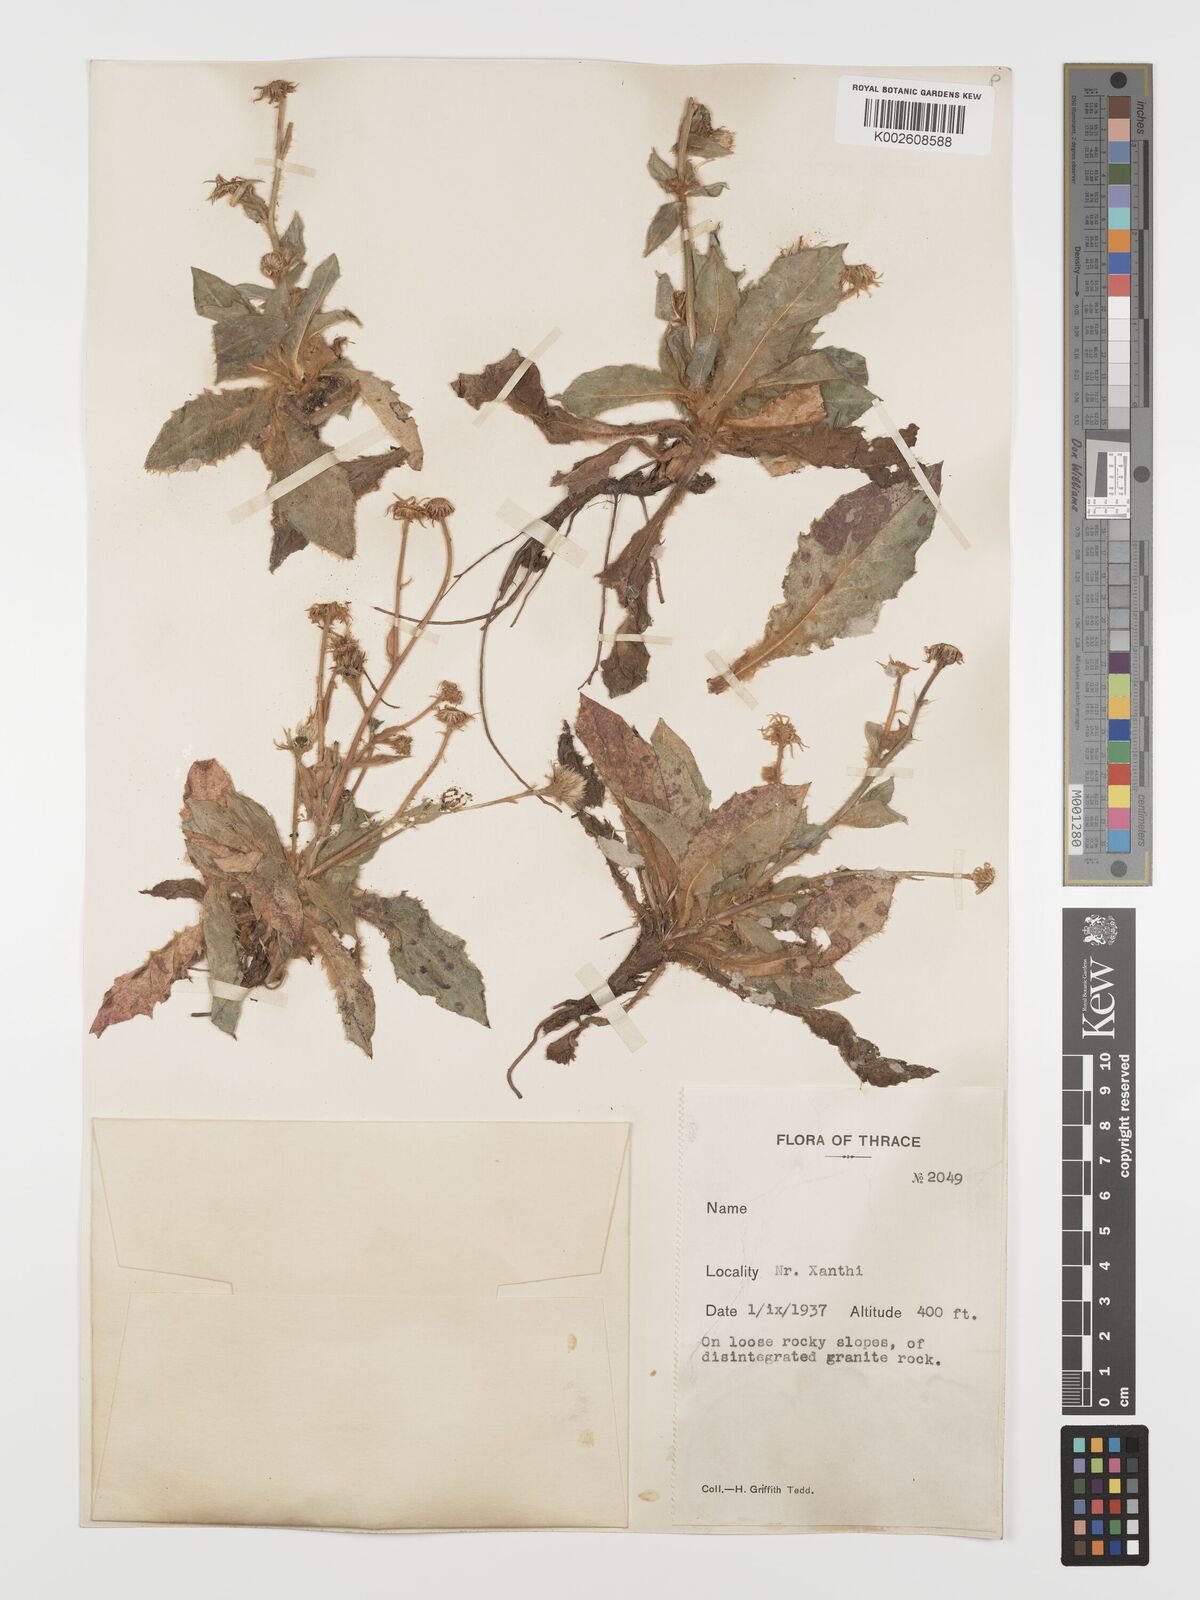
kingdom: Plantae
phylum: Tracheophyta
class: Magnoliopsida
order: Asterales
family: Asteraceae
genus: Hieracium
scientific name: Hieracium pannosum
